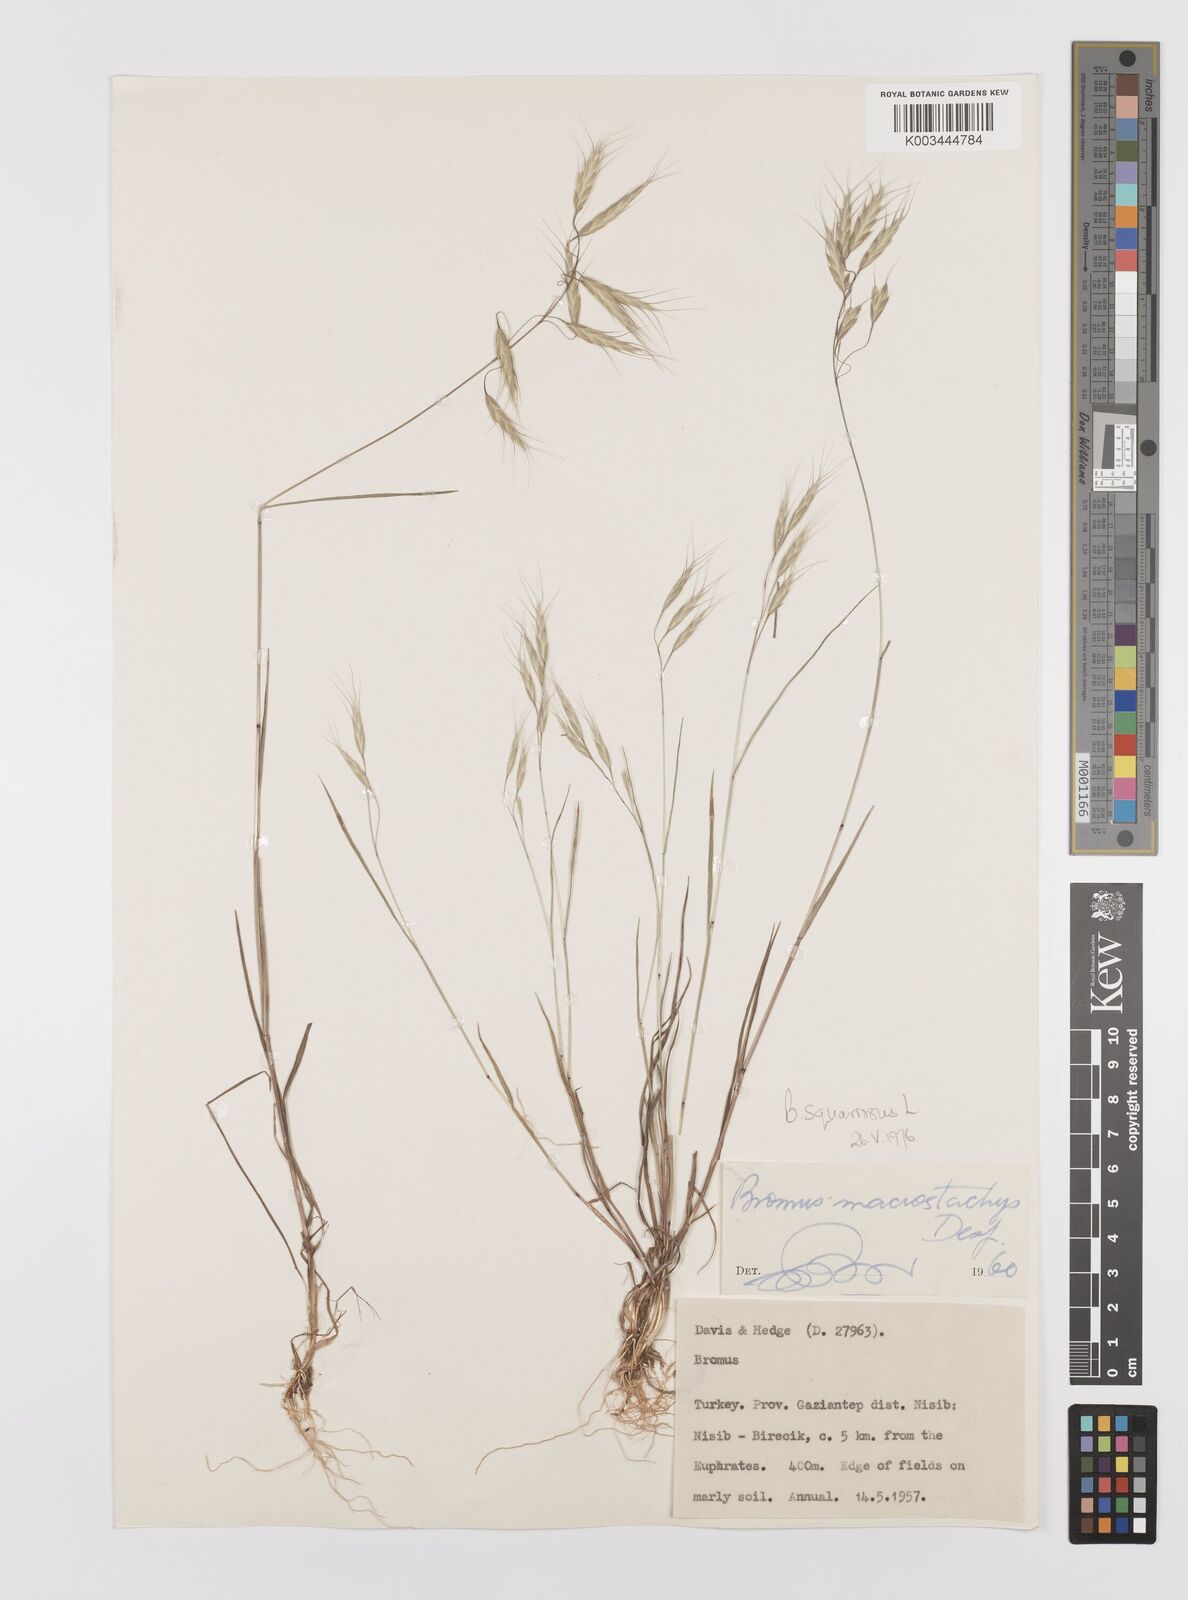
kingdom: Plantae
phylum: Tracheophyta
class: Liliopsida
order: Poales
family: Poaceae
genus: Bromus
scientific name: Bromus squarrosus
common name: Corn brome
